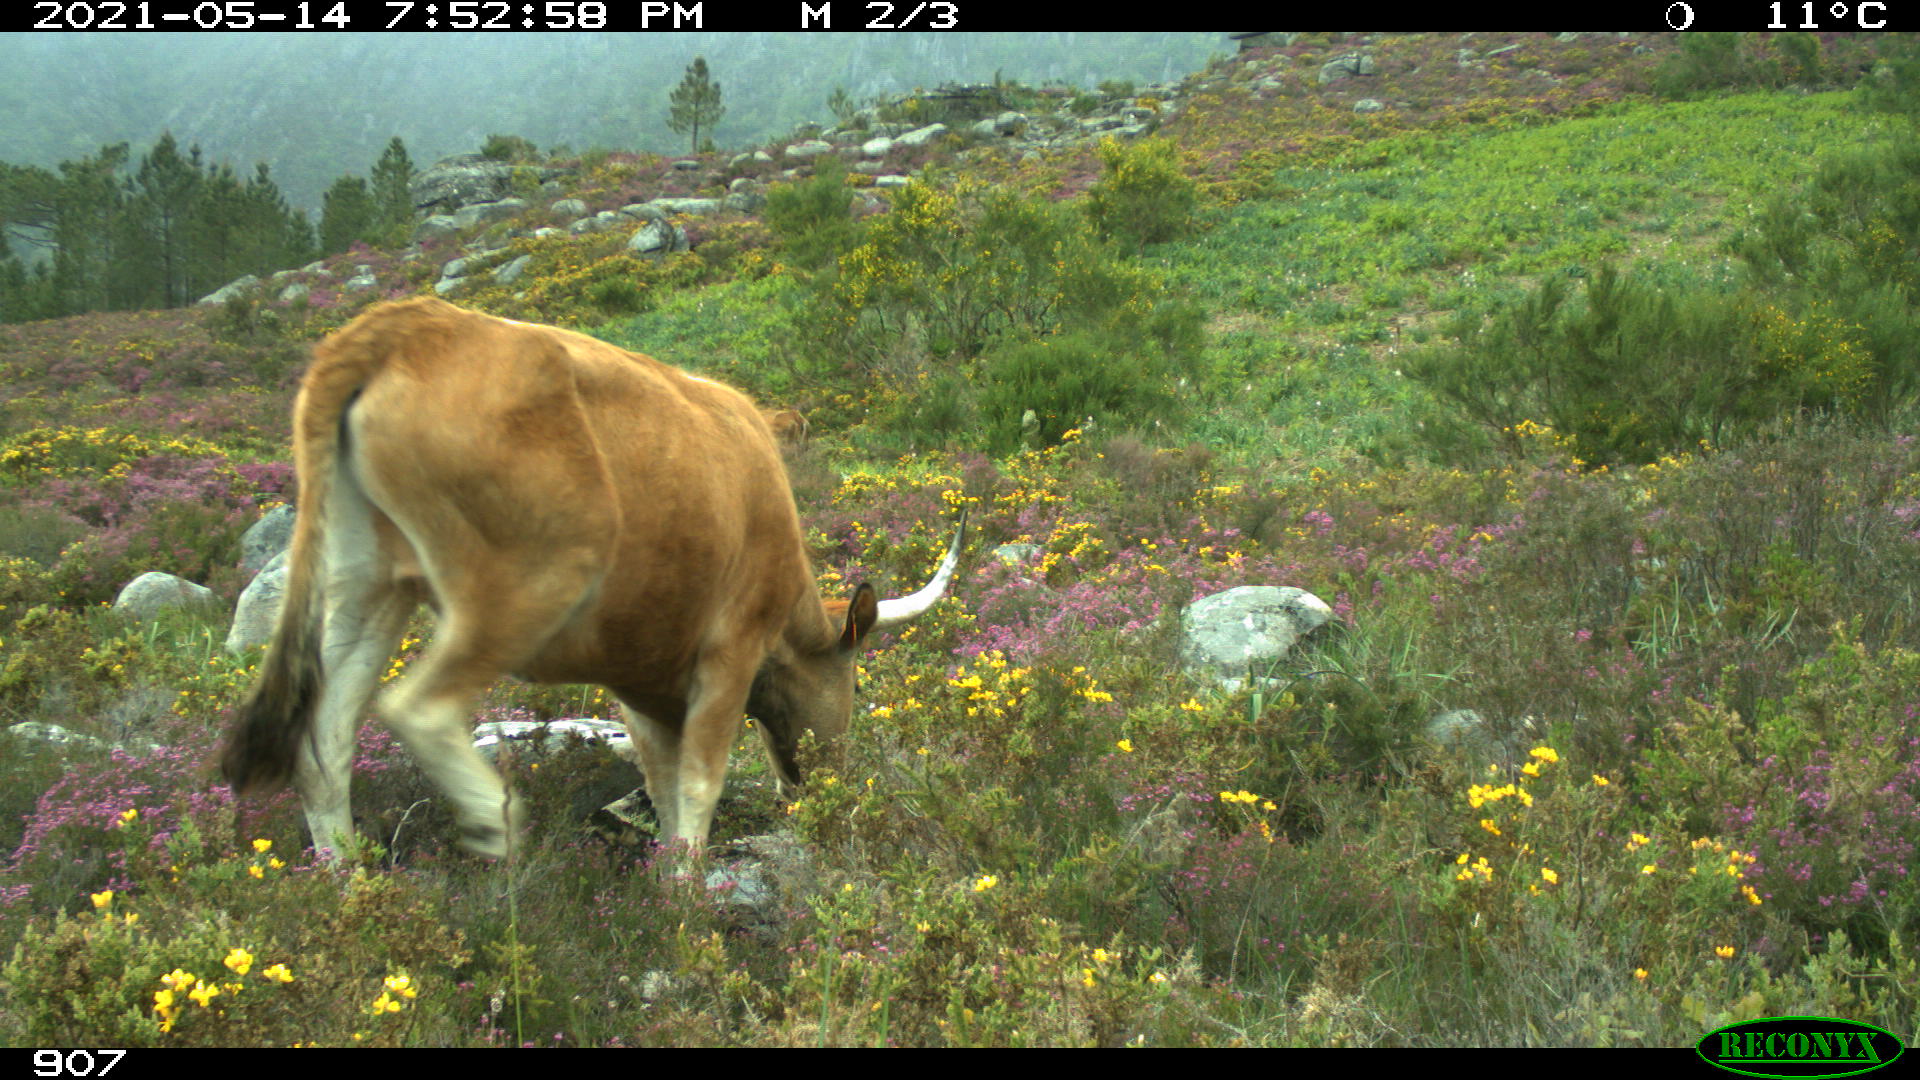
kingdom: Animalia
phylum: Chordata
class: Mammalia
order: Artiodactyla
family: Bovidae
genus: Bos
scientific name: Bos taurus
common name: Domesticated cattle
